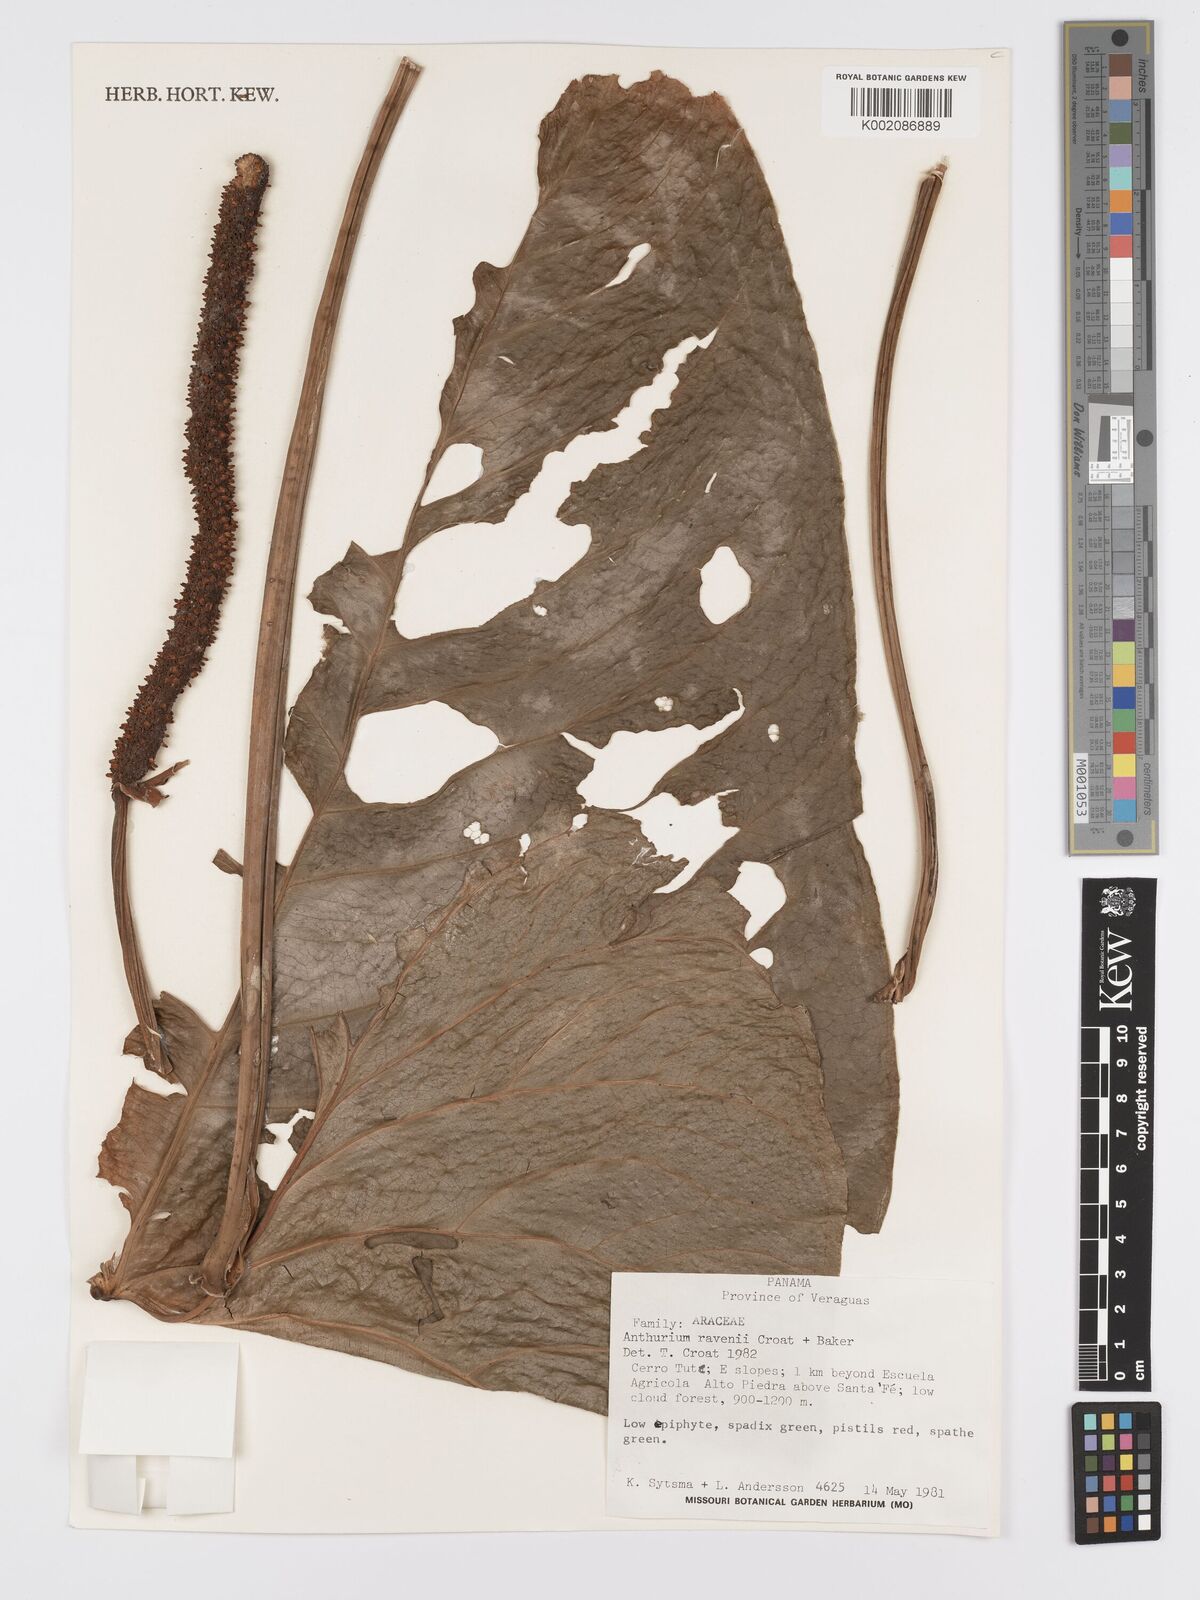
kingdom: Plantae
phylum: Tracheophyta
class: Liliopsida
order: Alismatales
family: Araceae
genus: Anthurium
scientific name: Anthurium ravenii
